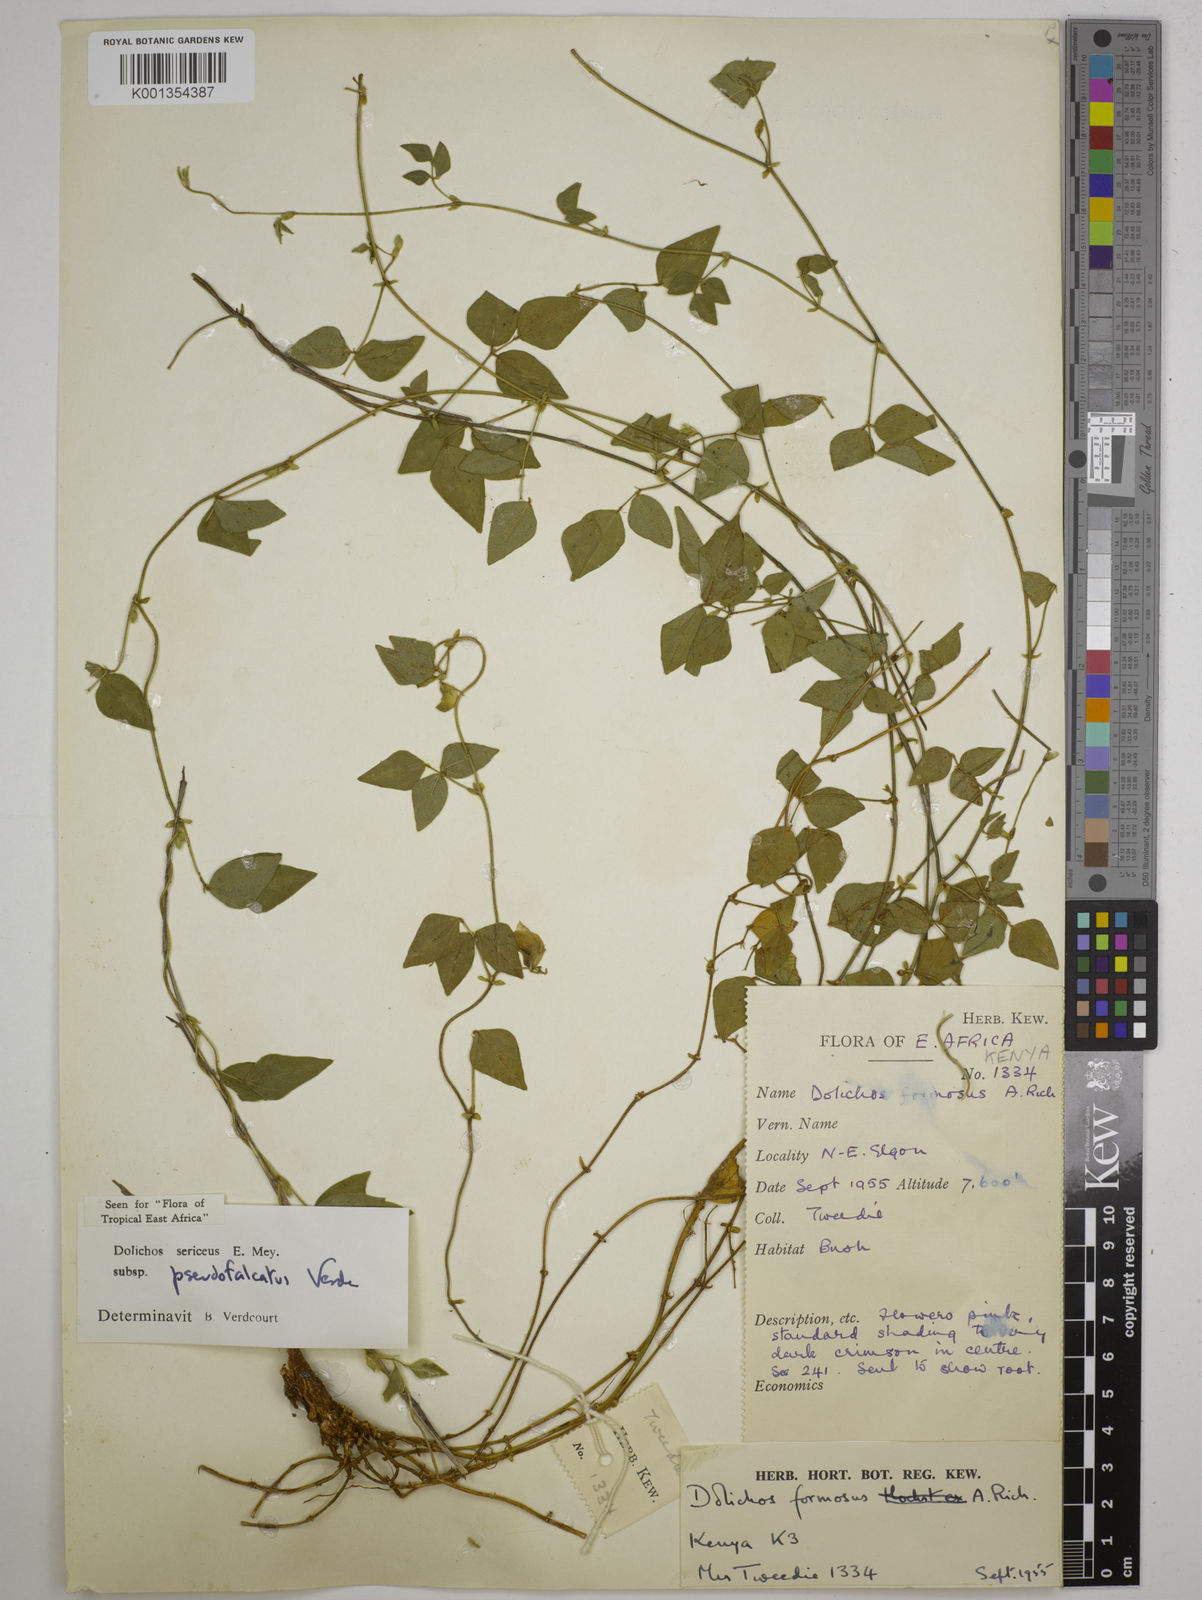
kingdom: Plantae
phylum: Tracheophyta
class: Magnoliopsida
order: Fabales
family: Fabaceae
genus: Dolichos
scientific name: Dolichos
